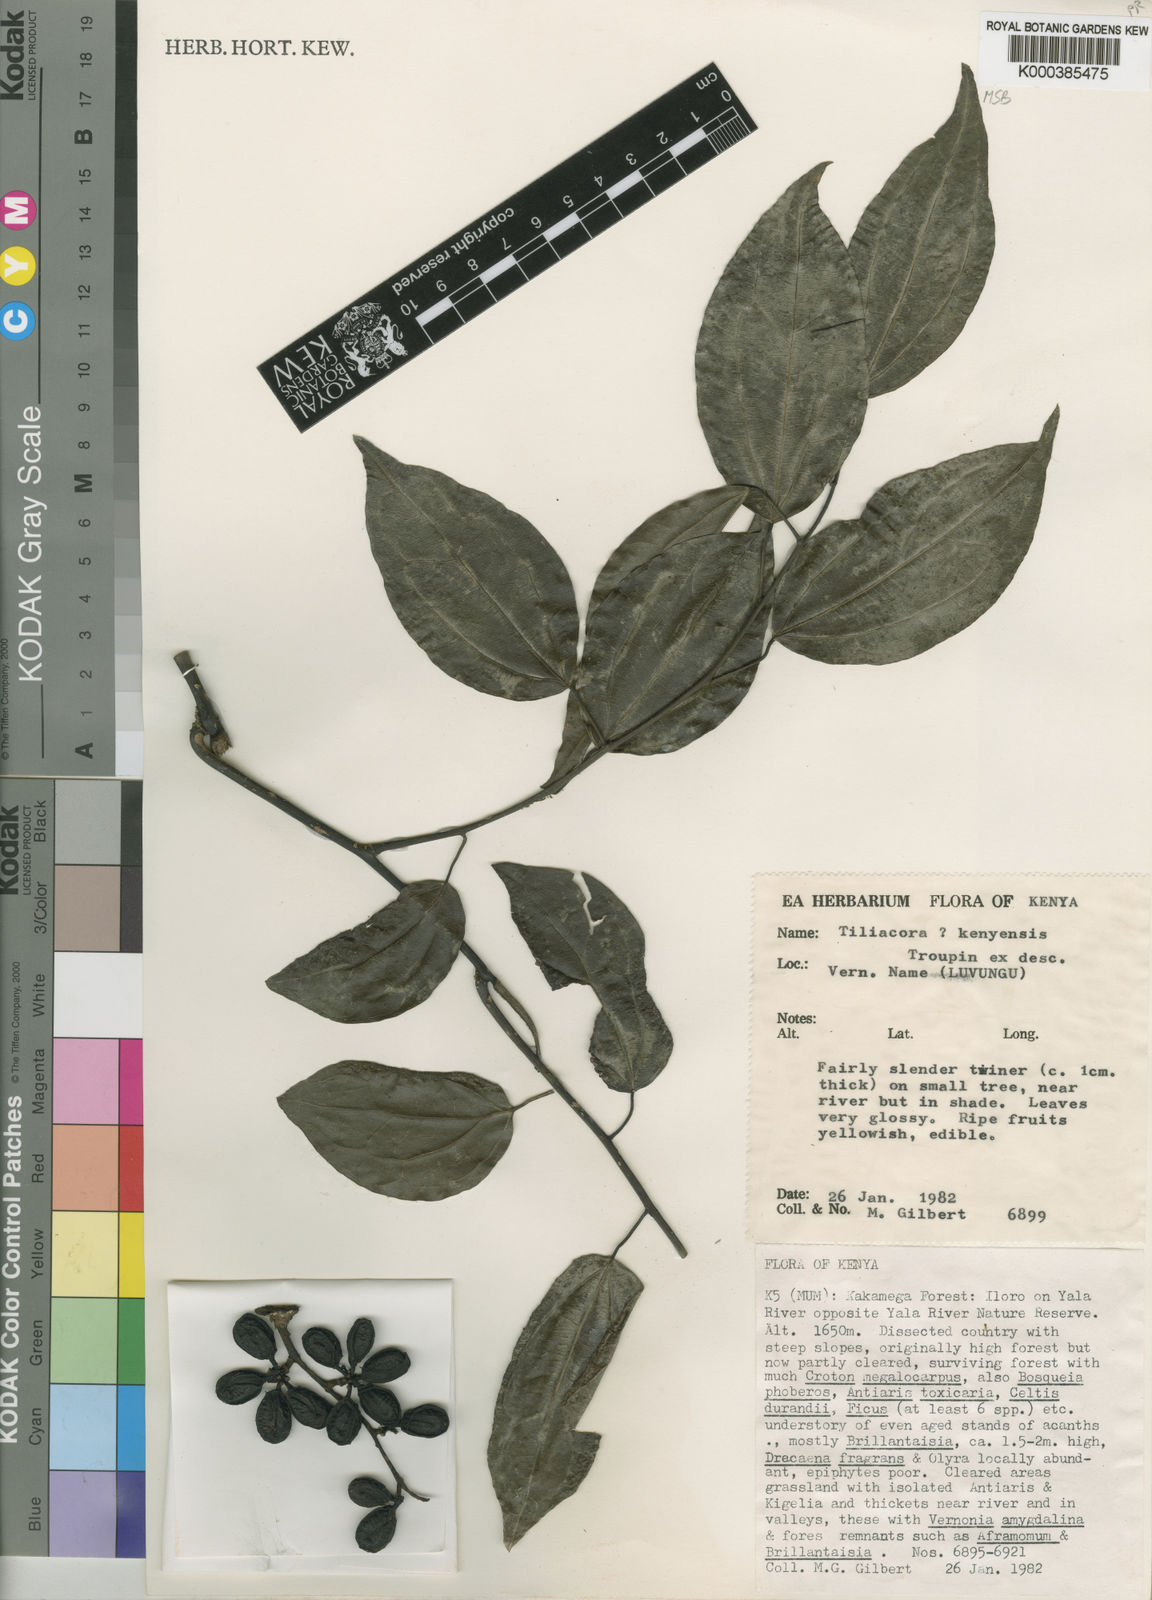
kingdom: Plantae
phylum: Tracheophyta
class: Magnoliopsida
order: Ranunculales
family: Menispermaceae
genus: Tiliacora
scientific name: Tiliacora kenyensis
